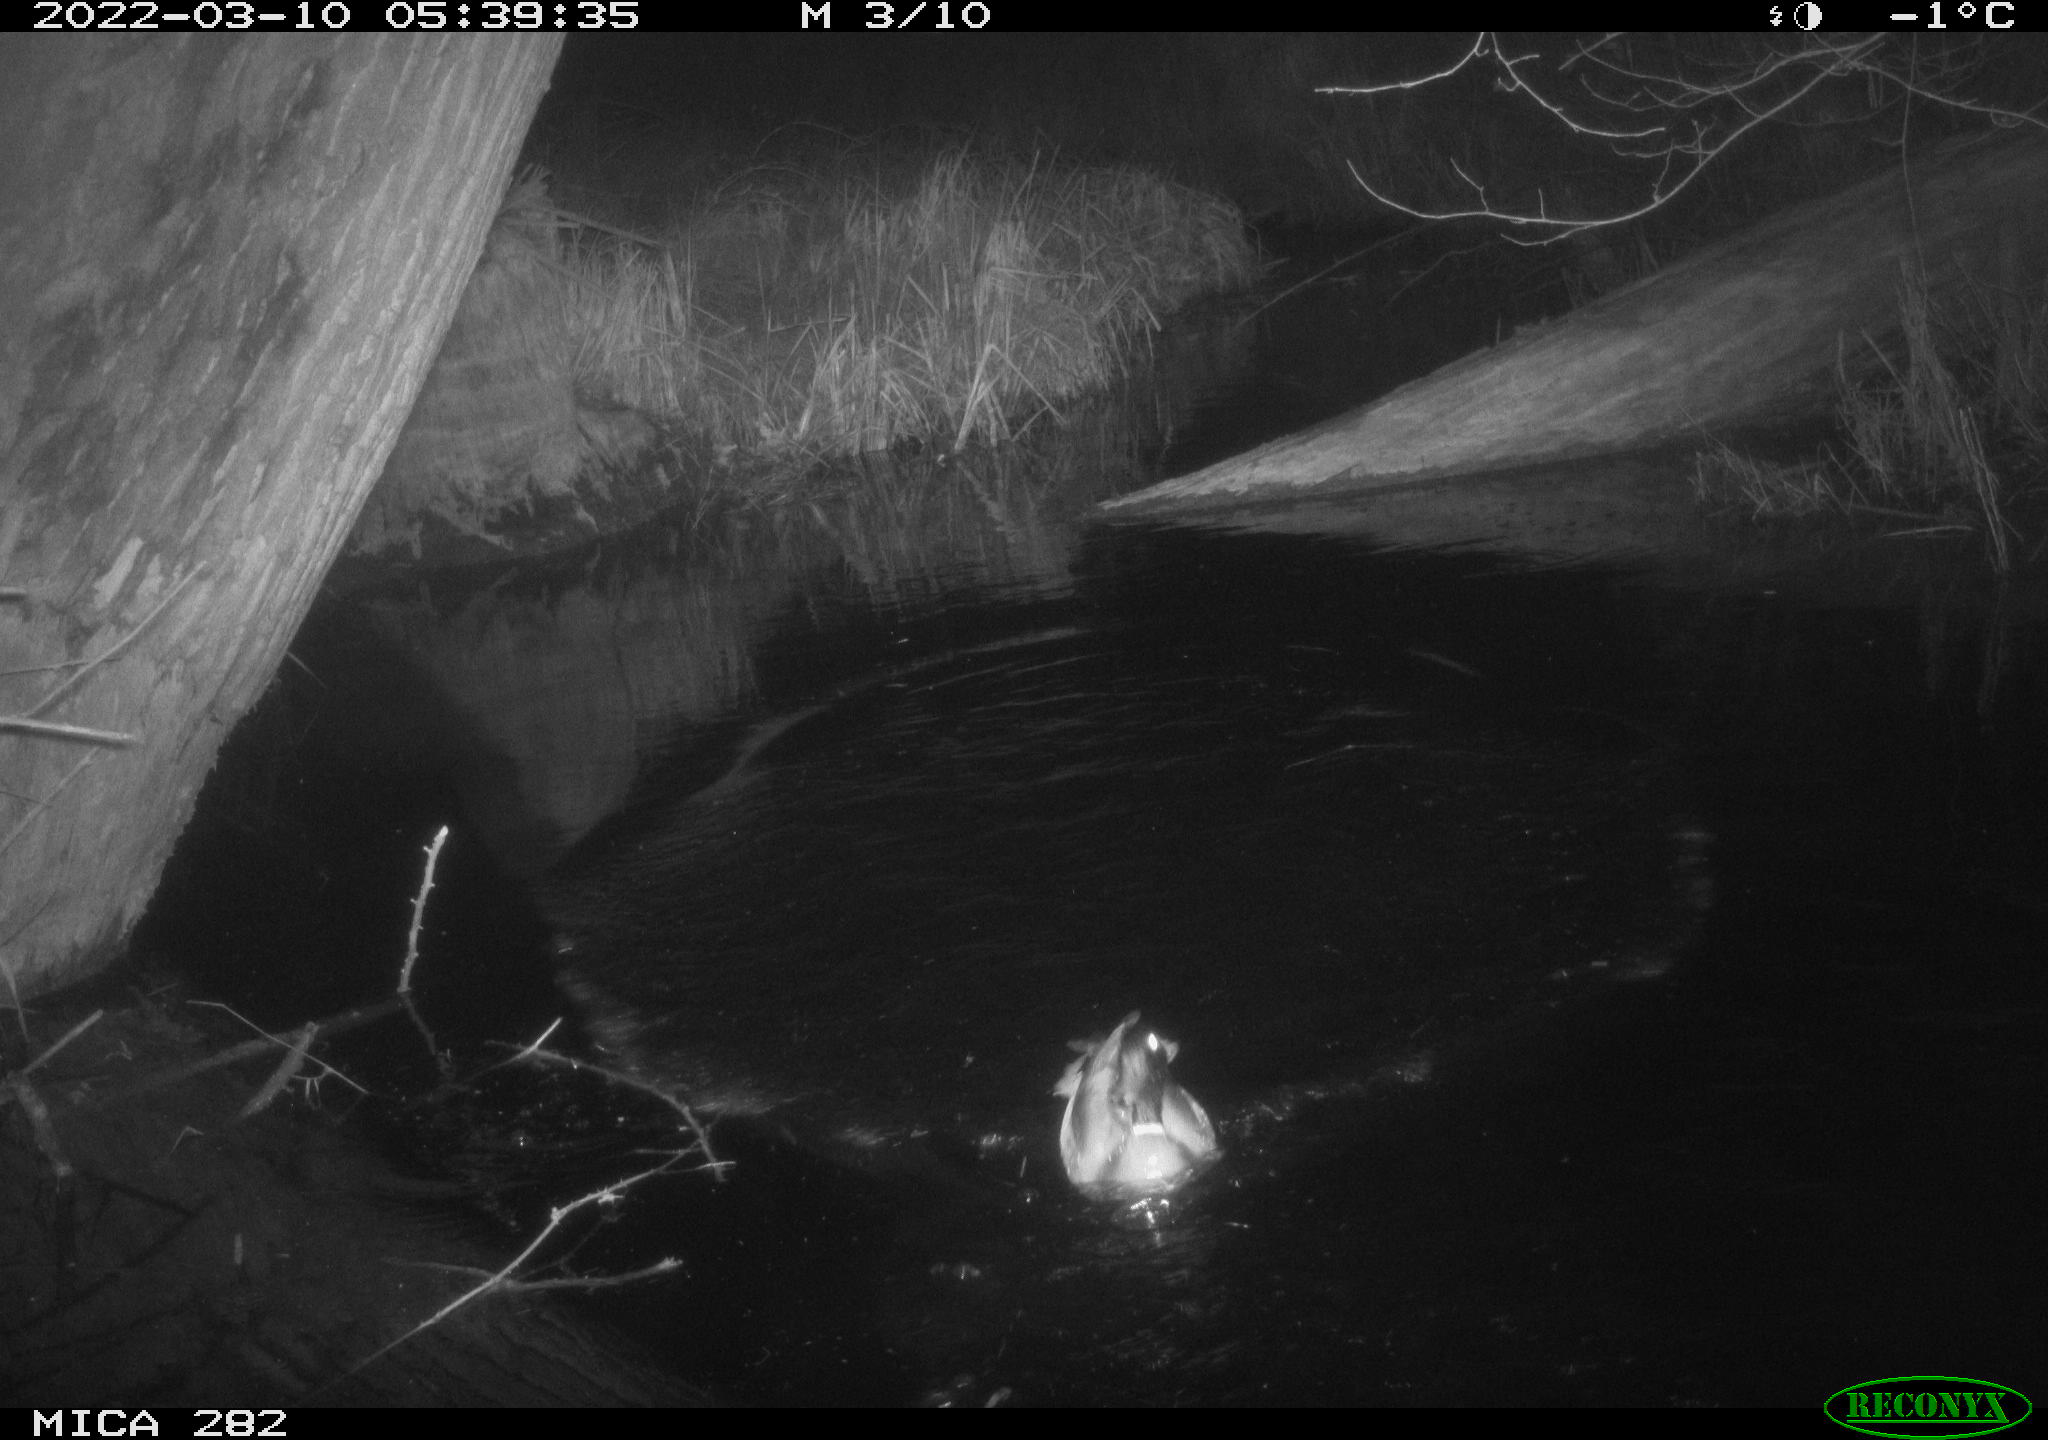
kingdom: Animalia
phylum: Chordata
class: Aves
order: Anseriformes
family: Anatidae
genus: Anas
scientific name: Anas platyrhynchos
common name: Mallard
